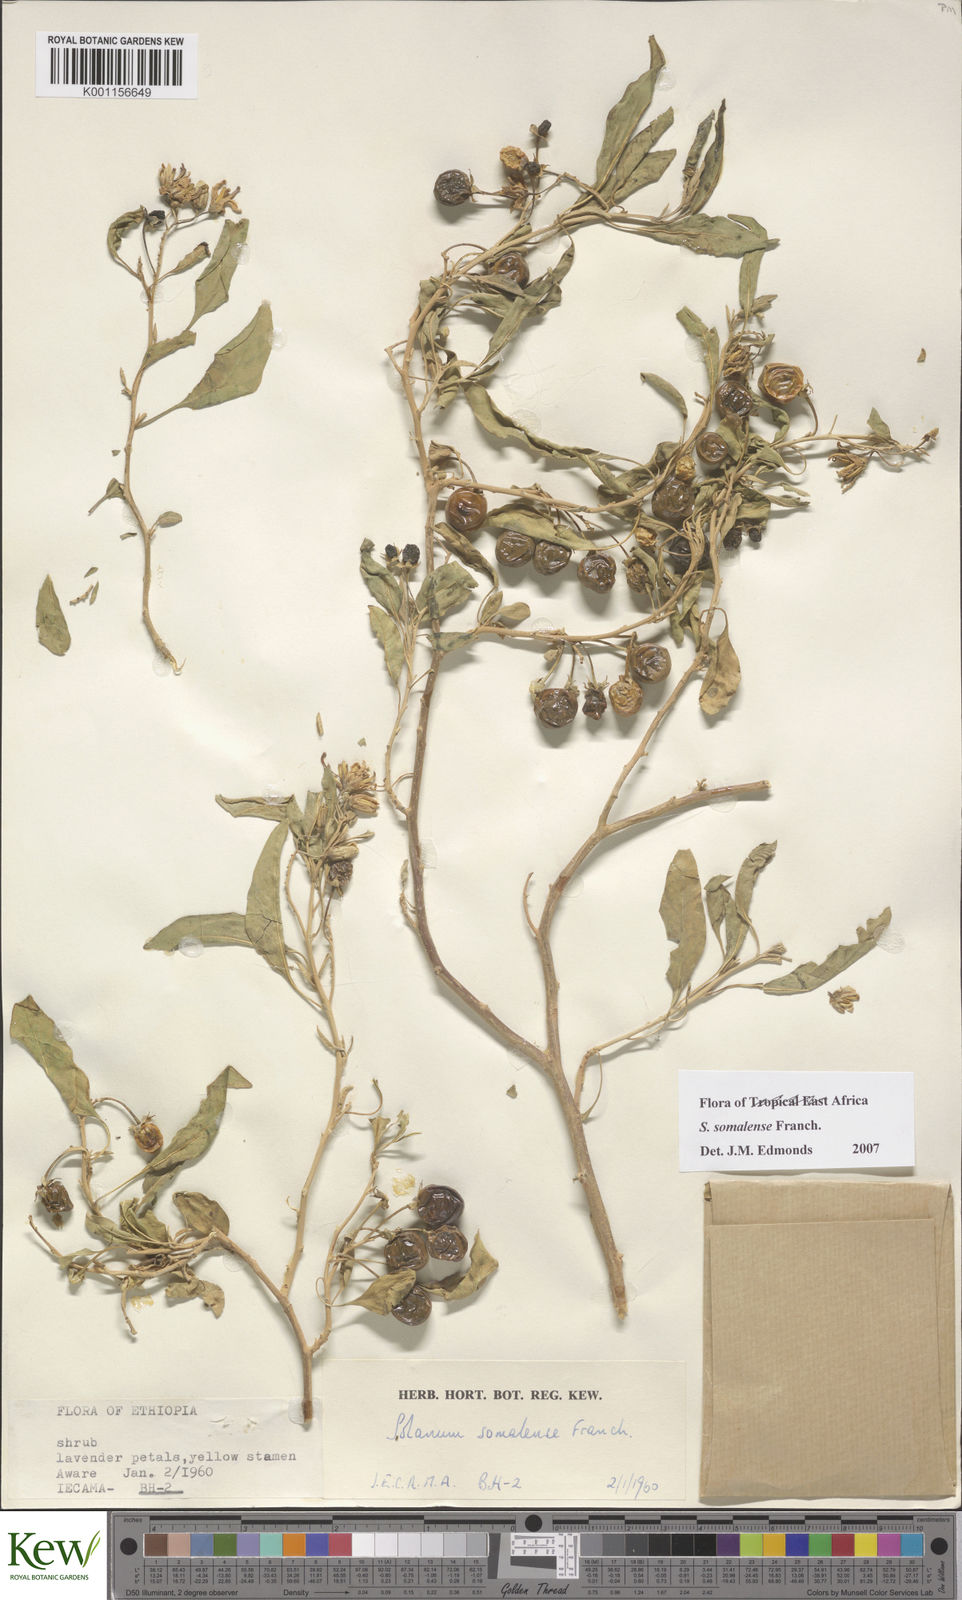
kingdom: Plantae
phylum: Tracheophyta
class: Magnoliopsida
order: Solanales
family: Solanaceae
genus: Solanum
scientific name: Solanum somalense
